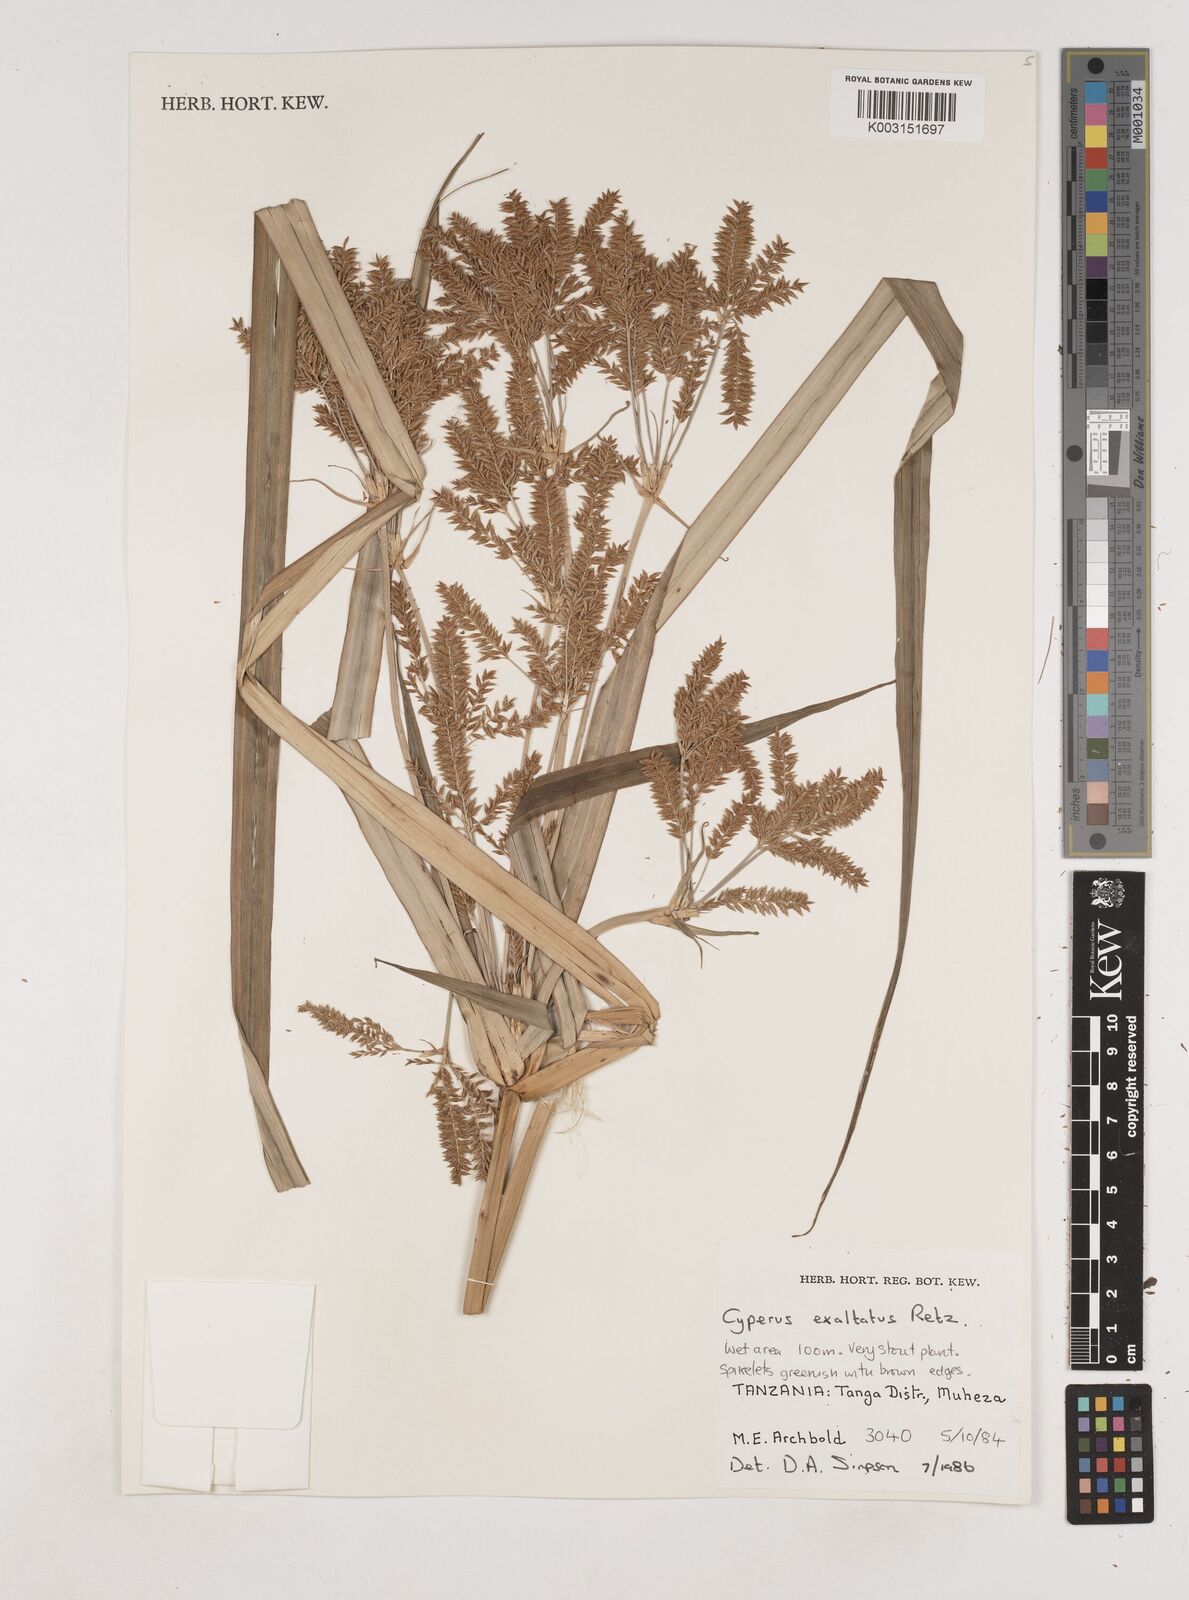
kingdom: Plantae
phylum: Tracheophyta
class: Liliopsida
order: Poales
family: Cyperaceae
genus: Cyperus
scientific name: Cyperus exaltatus
